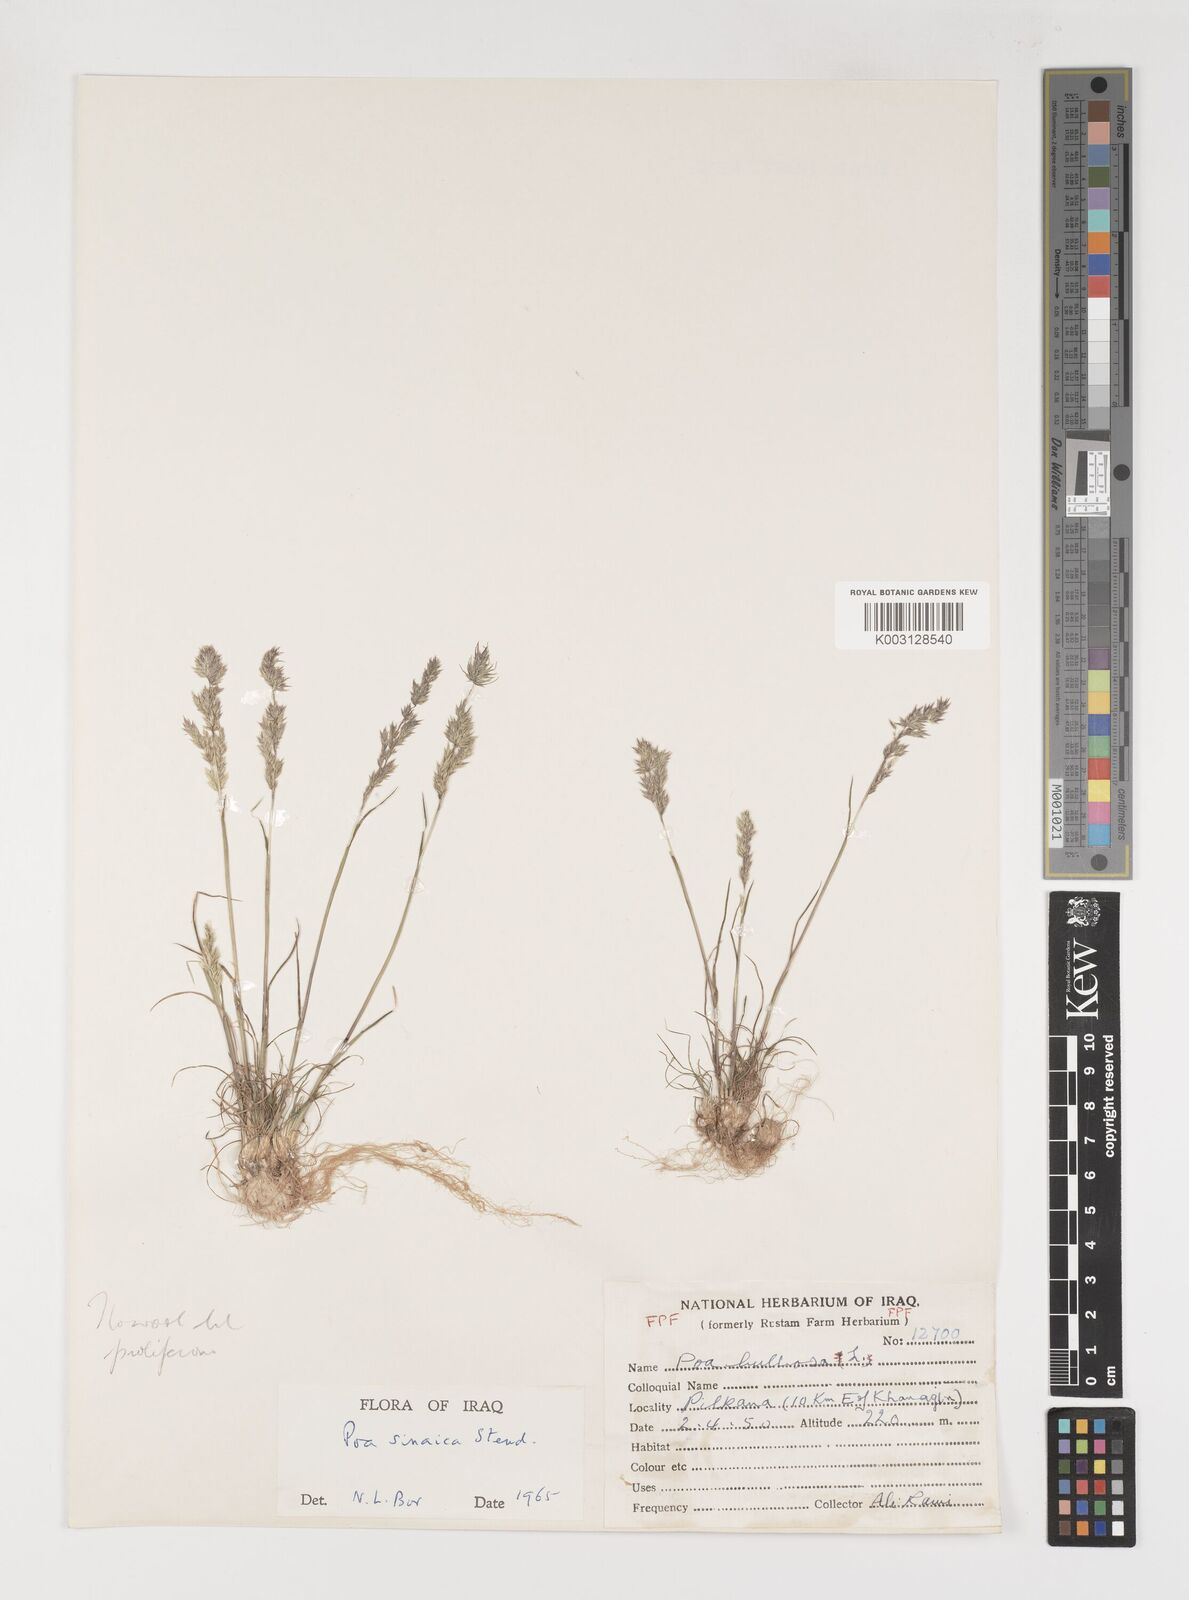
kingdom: Plantae
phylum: Tracheophyta
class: Liliopsida
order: Poales
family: Poaceae
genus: Poa
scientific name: Poa sinaica
